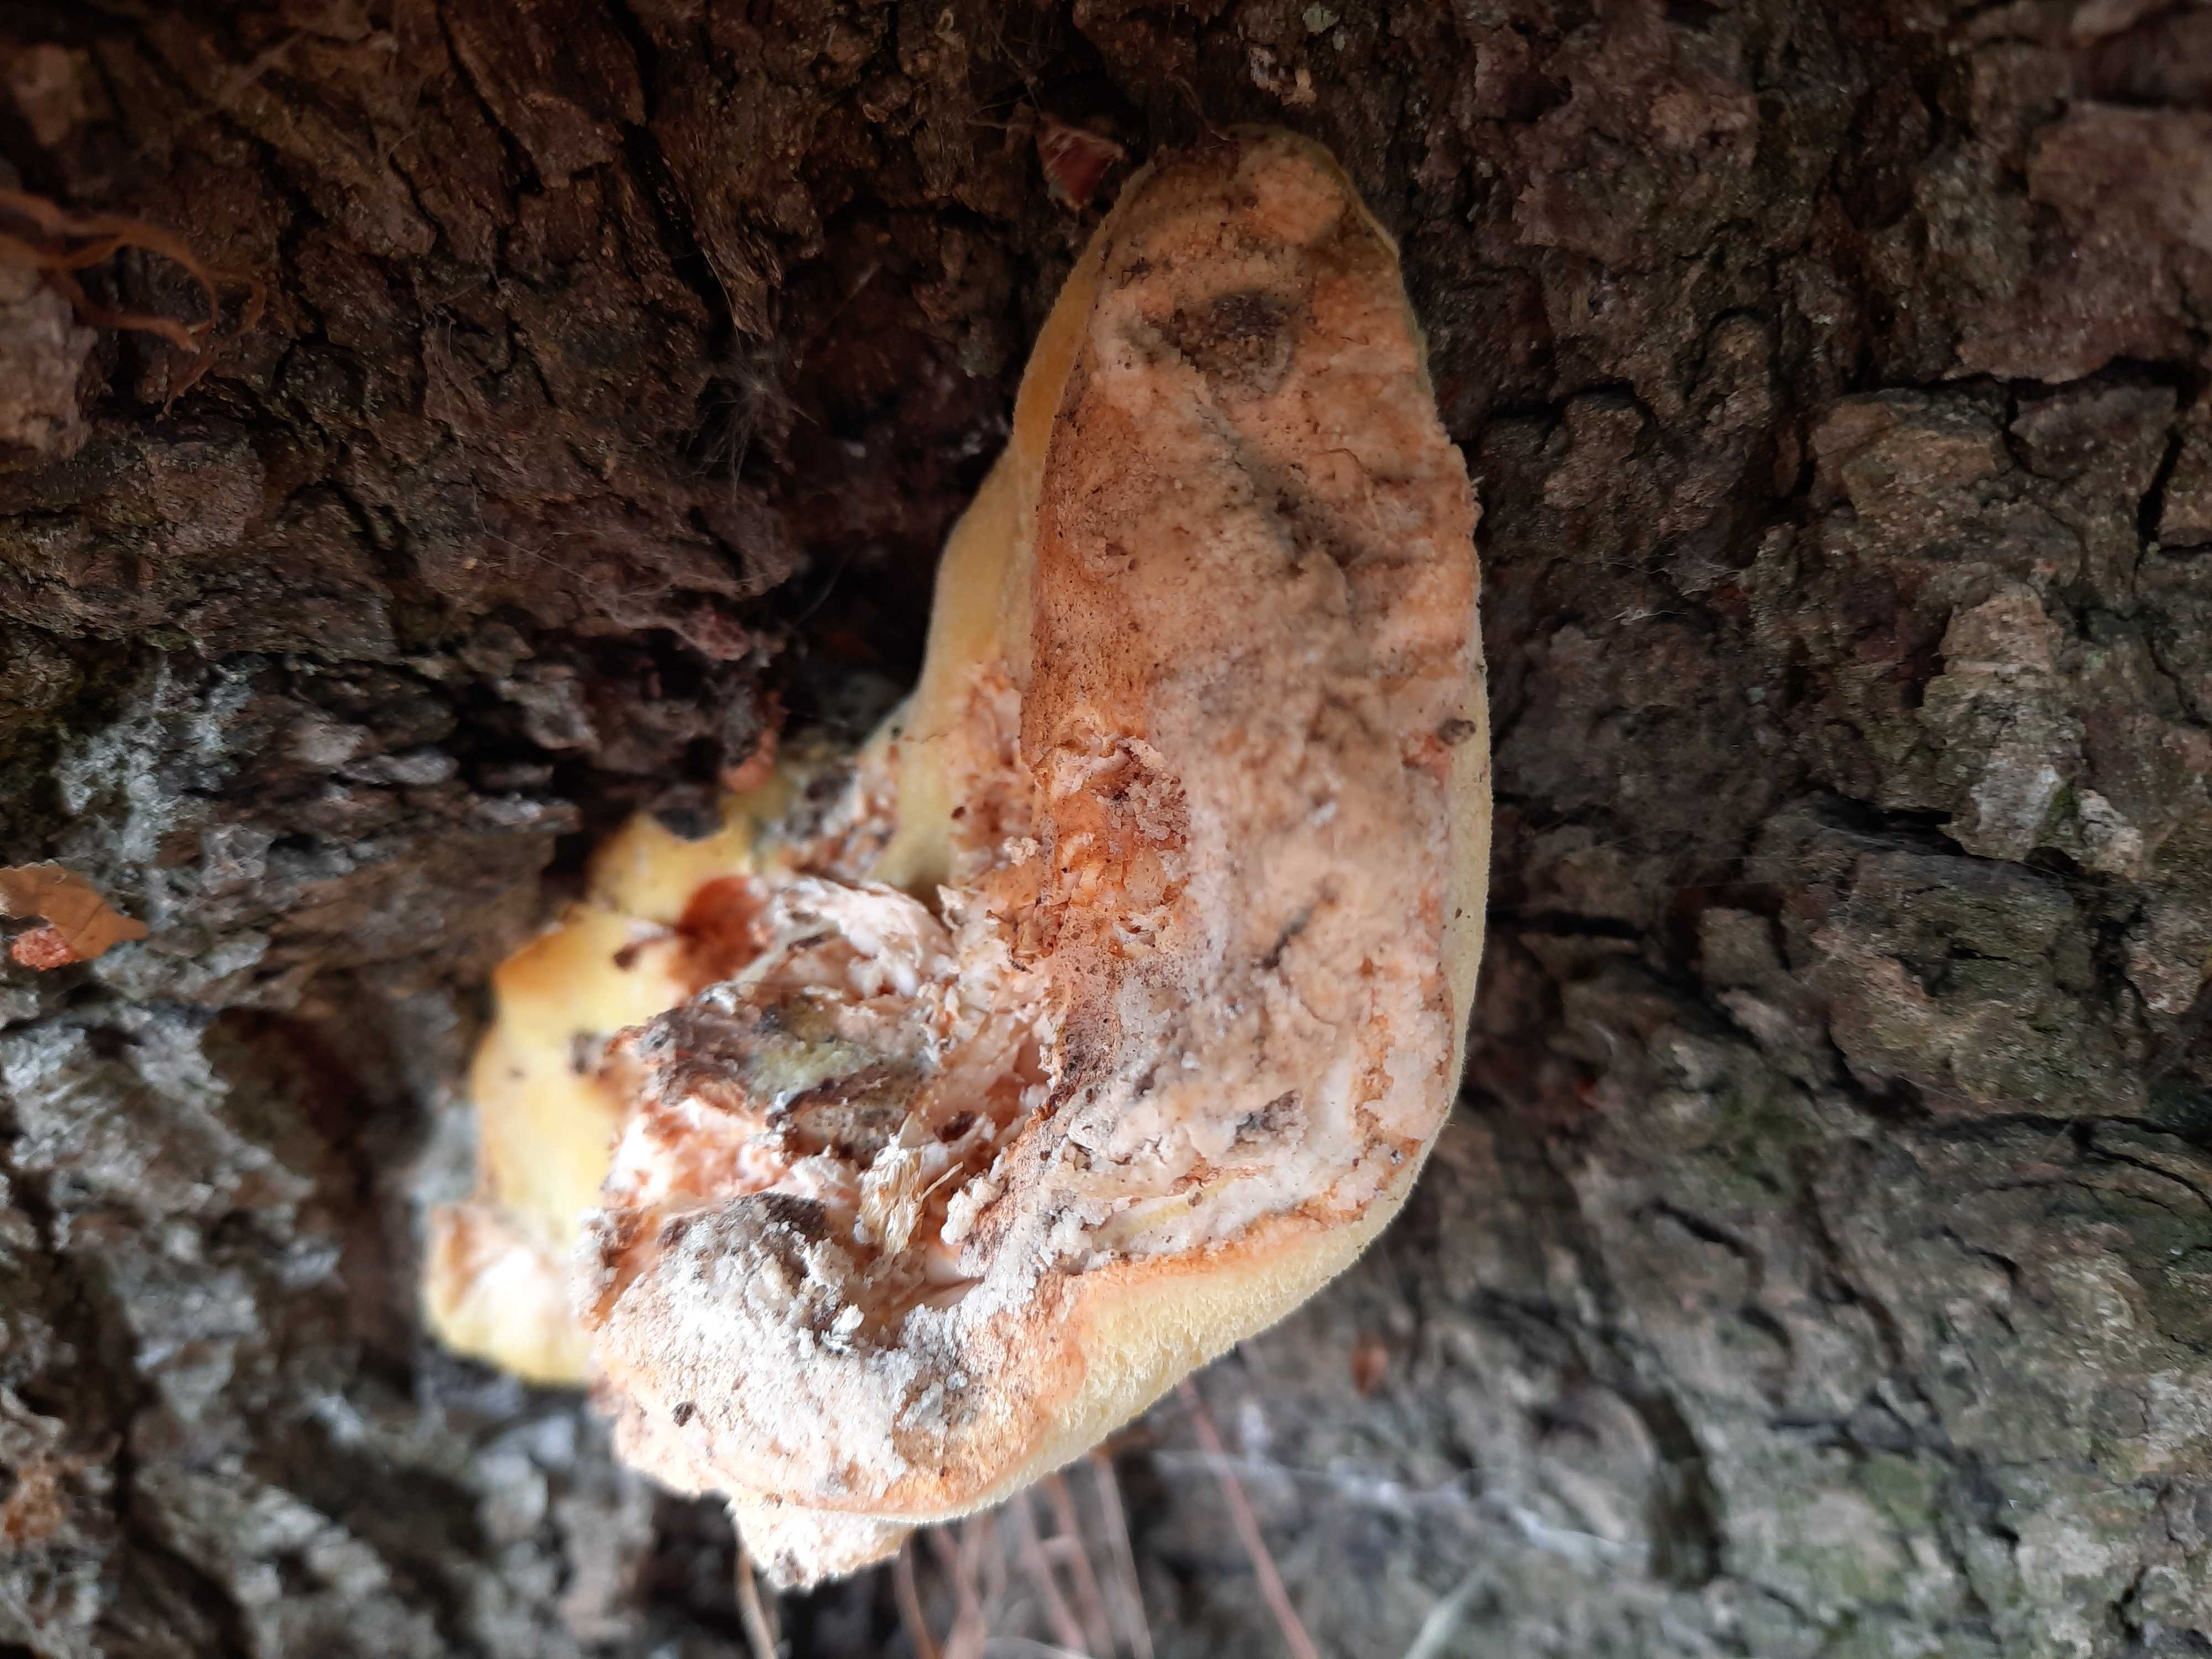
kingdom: Fungi
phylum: Basidiomycota
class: Agaricomycetes
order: Polyporales
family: Fomitopsidaceae
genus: Buglossoporus
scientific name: Buglossoporus quercinus
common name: egetunge
